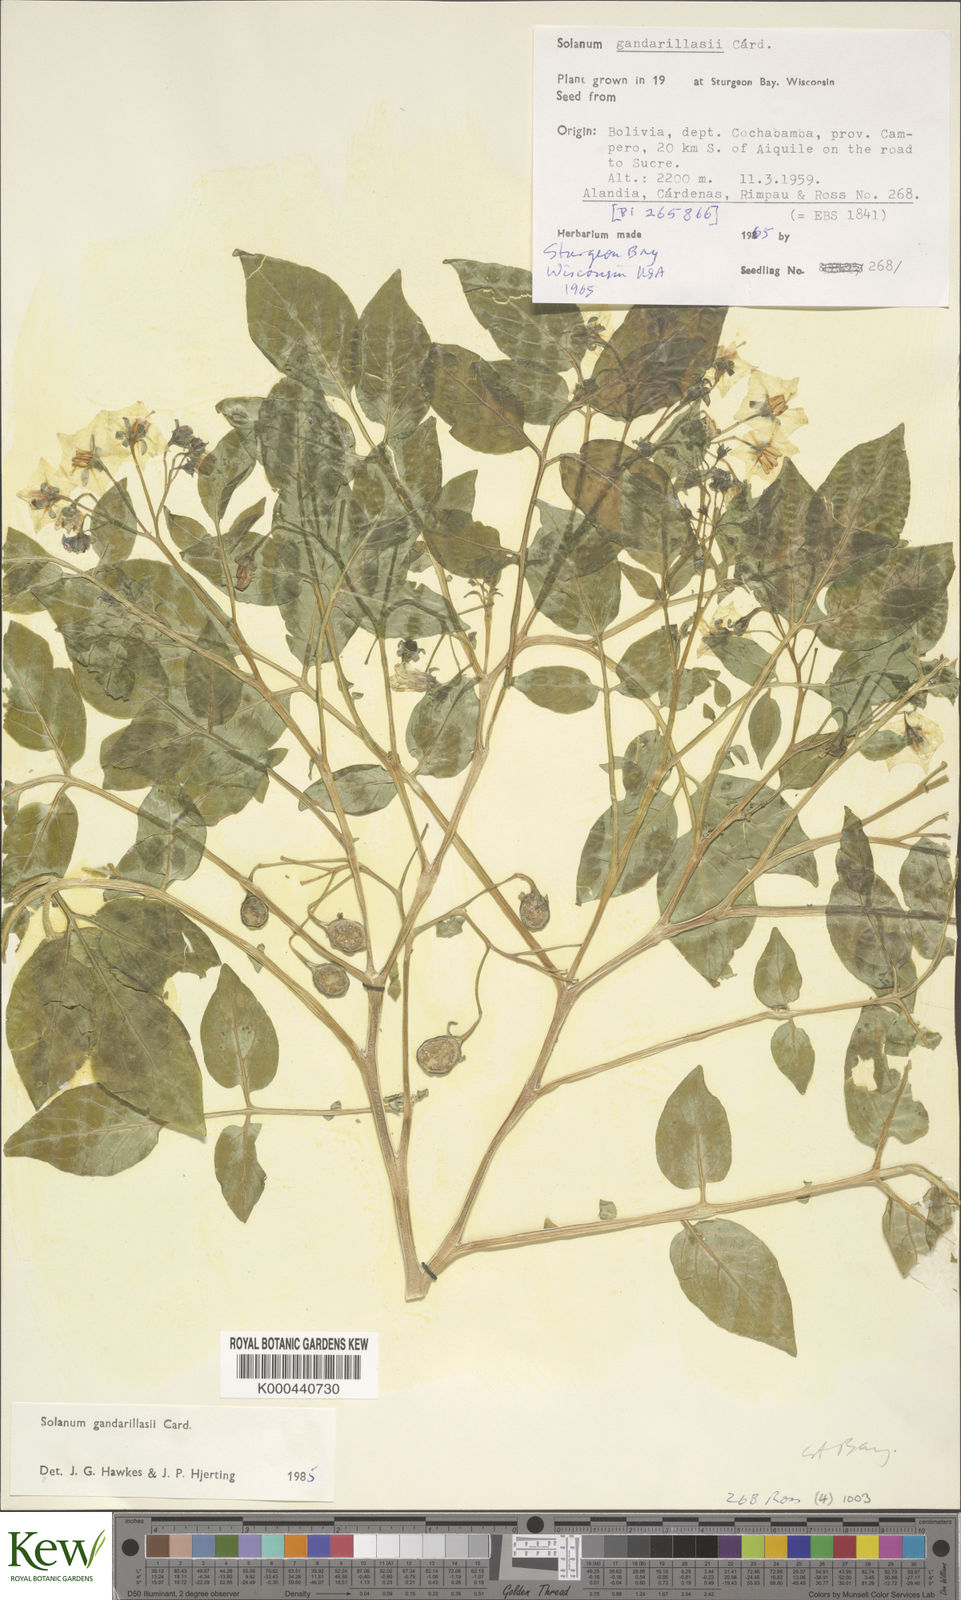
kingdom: Plantae
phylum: Tracheophyta
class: Magnoliopsida
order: Solanales
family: Solanaceae
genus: Solanum
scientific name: Solanum
